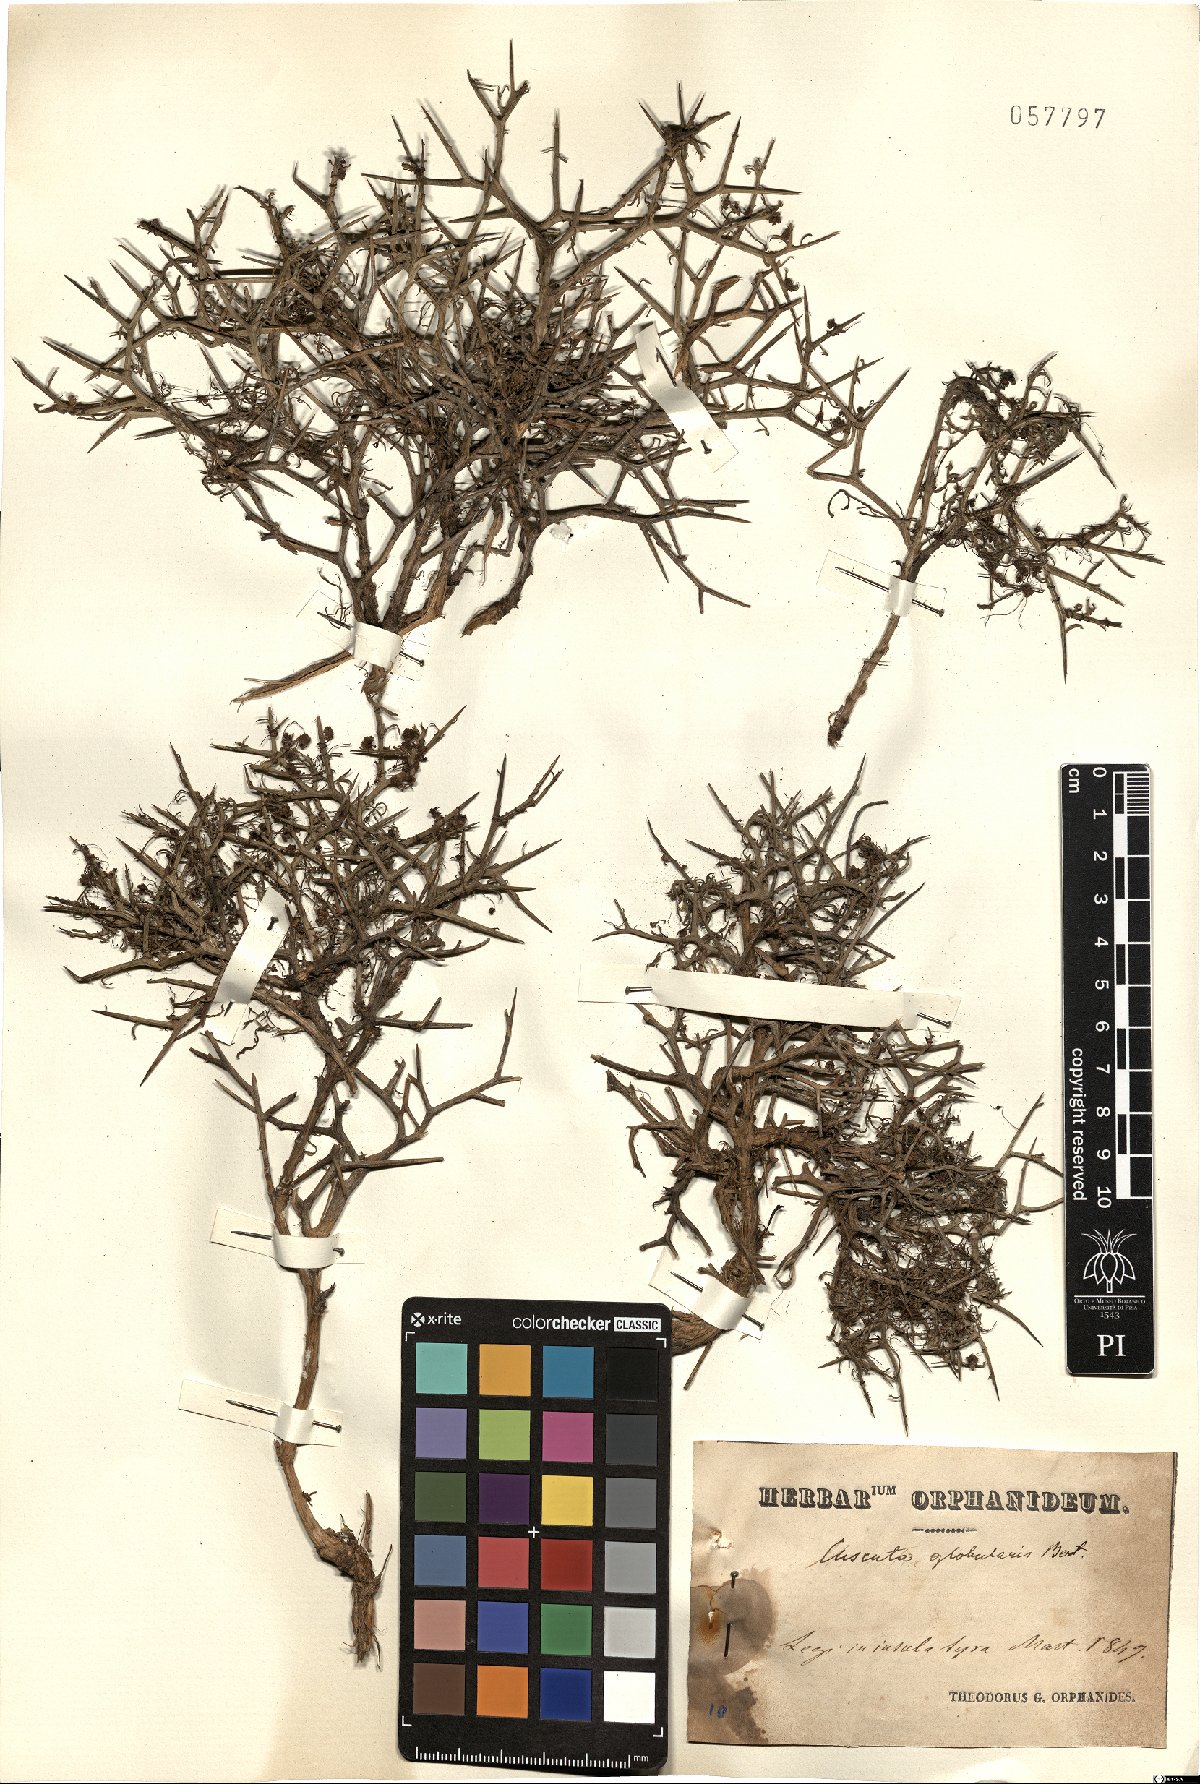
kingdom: Plantae
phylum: Tracheophyta
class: Magnoliopsida
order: Solanales
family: Convolvulaceae
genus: Cuscuta
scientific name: Cuscuta palaestina
